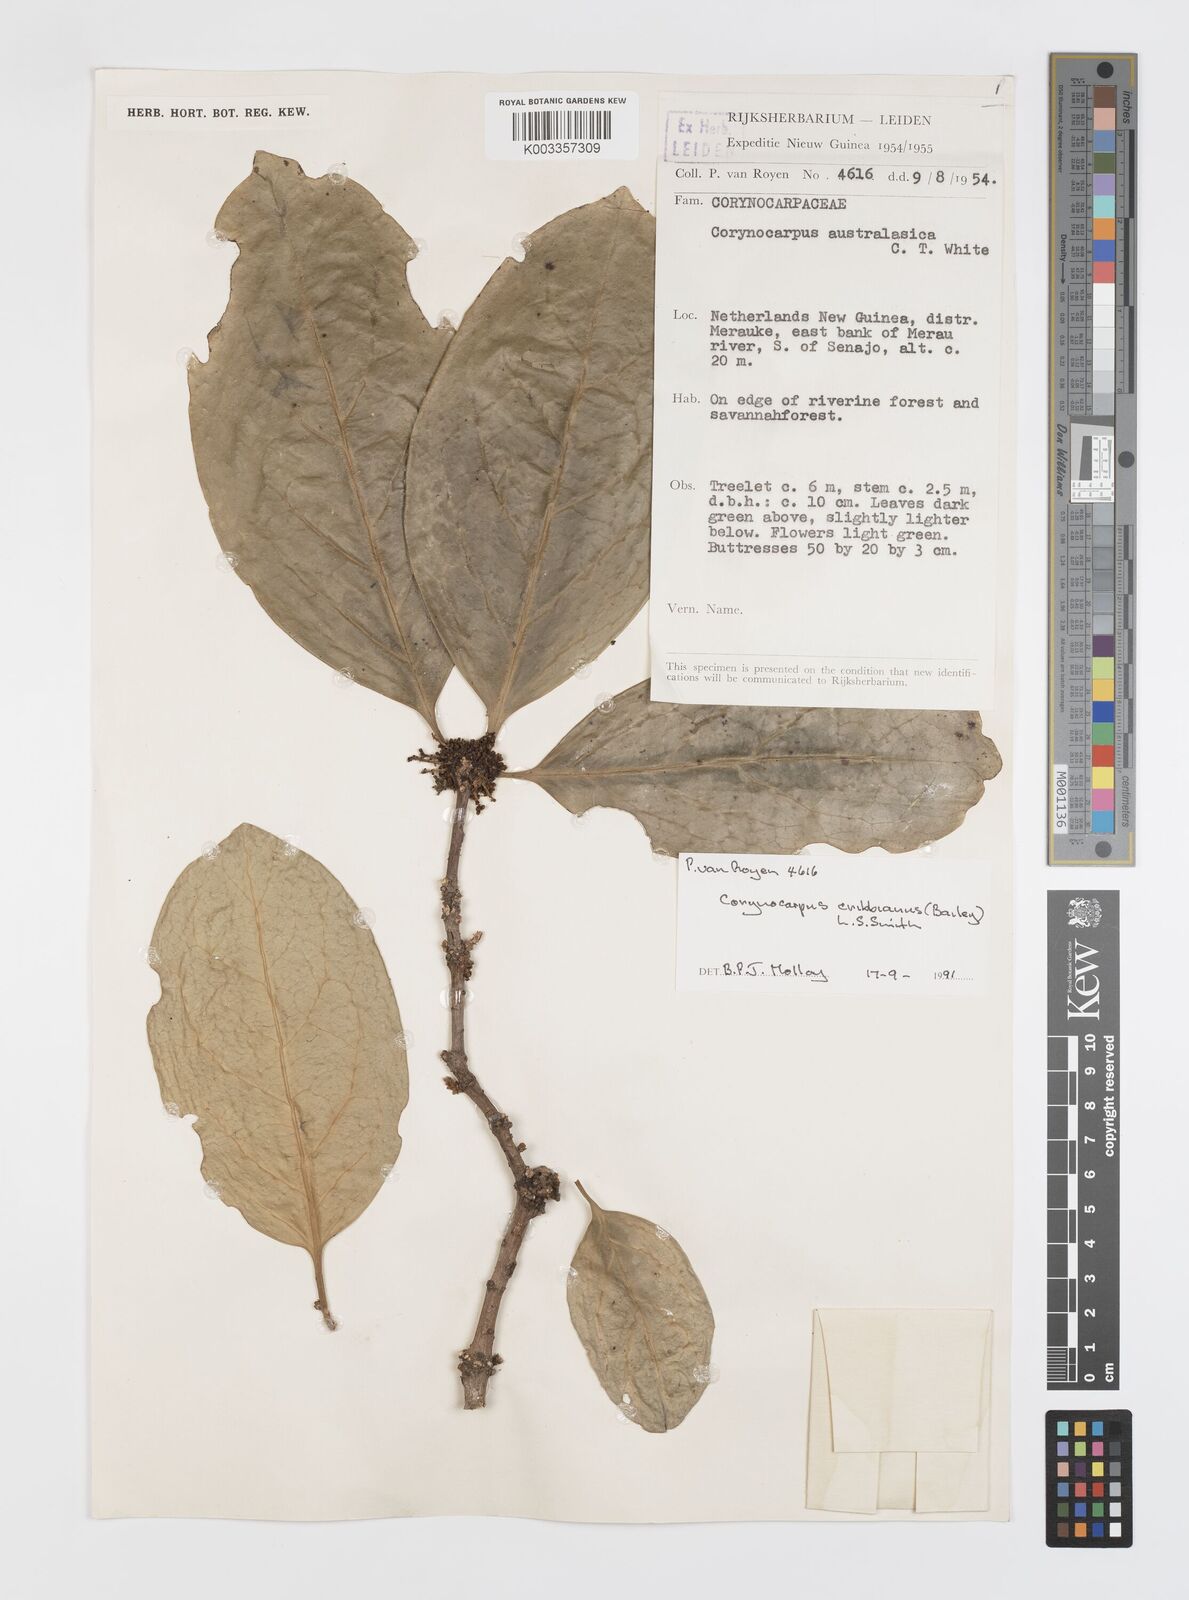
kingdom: Plantae
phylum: Tracheophyta
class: Magnoliopsida
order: Cucurbitales
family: Corynocarpaceae
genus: Corynocarpus
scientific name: Corynocarpus cribbianus
